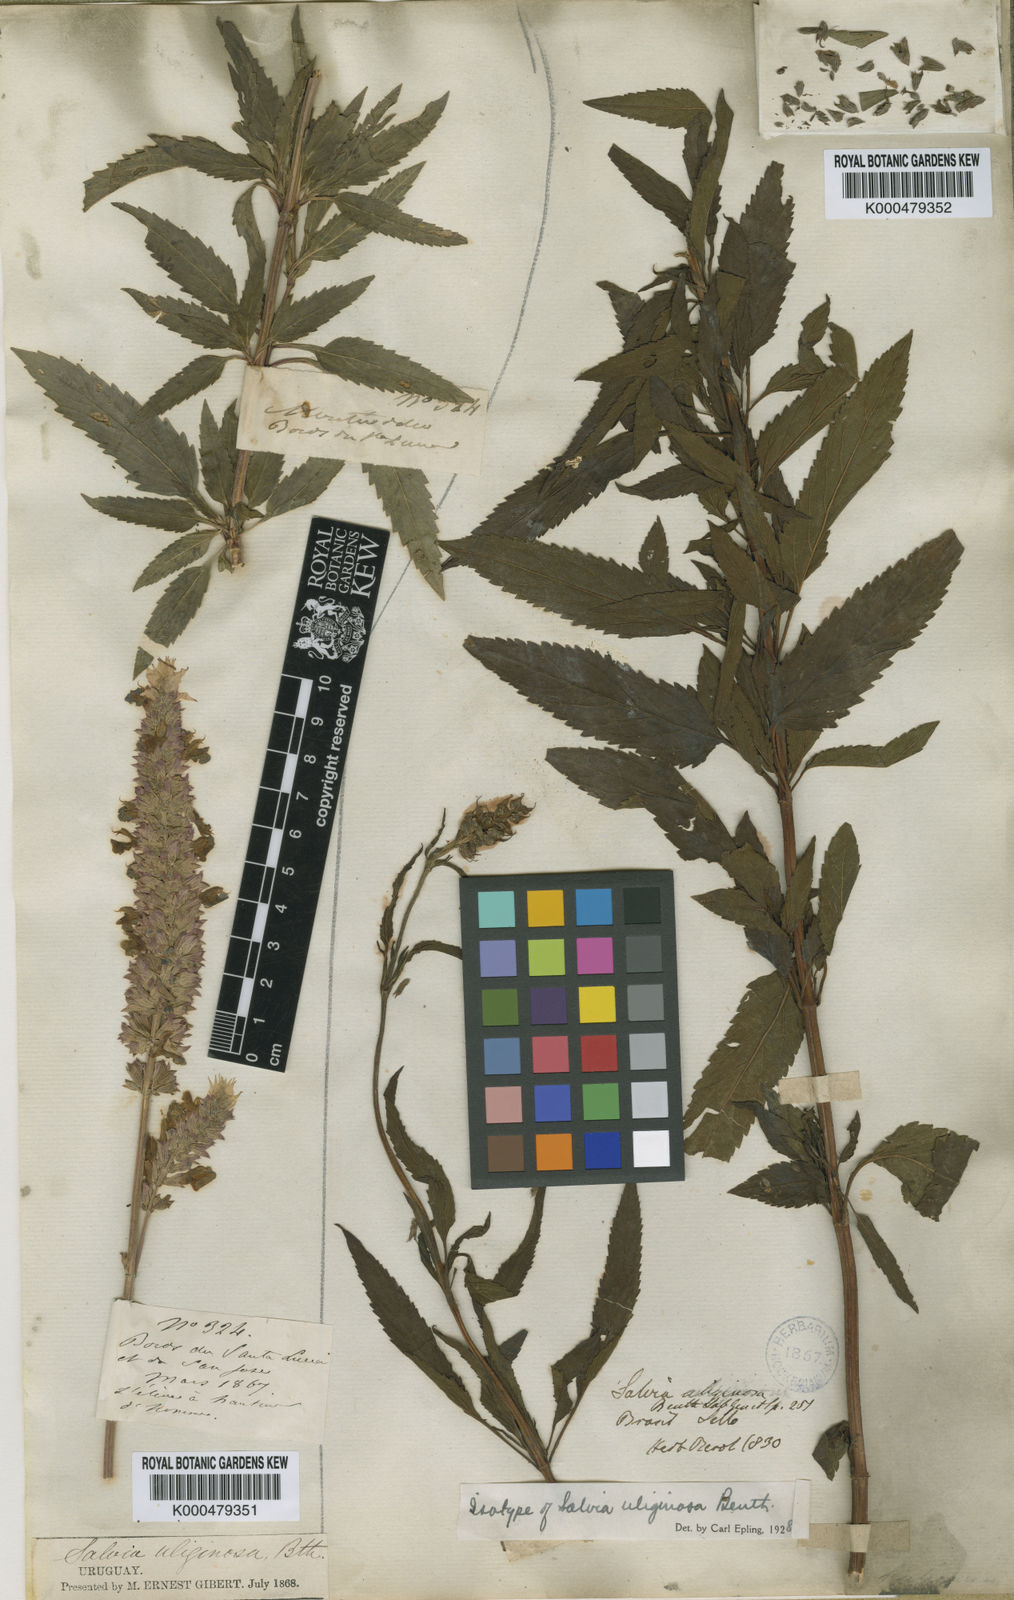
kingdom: Plantae
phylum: Tracheophyta
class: Magnoliopsida
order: Lamiales
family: Lamiaceae
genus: Salvia
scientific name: Salvia uliginosa
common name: Bog sage
